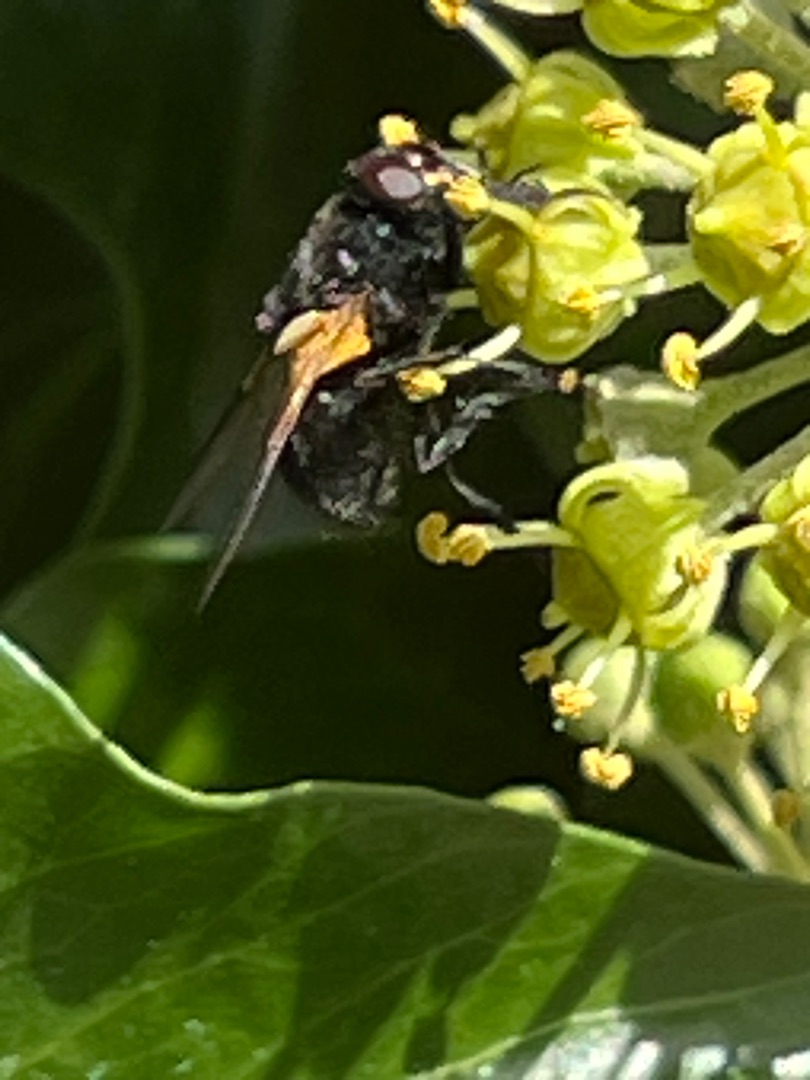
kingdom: Animalia
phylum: Arthropoda
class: Insecta
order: Diptera
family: Muscidae
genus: Mesembrina
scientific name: Mesembrina meridiana
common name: Gulvinget flue
